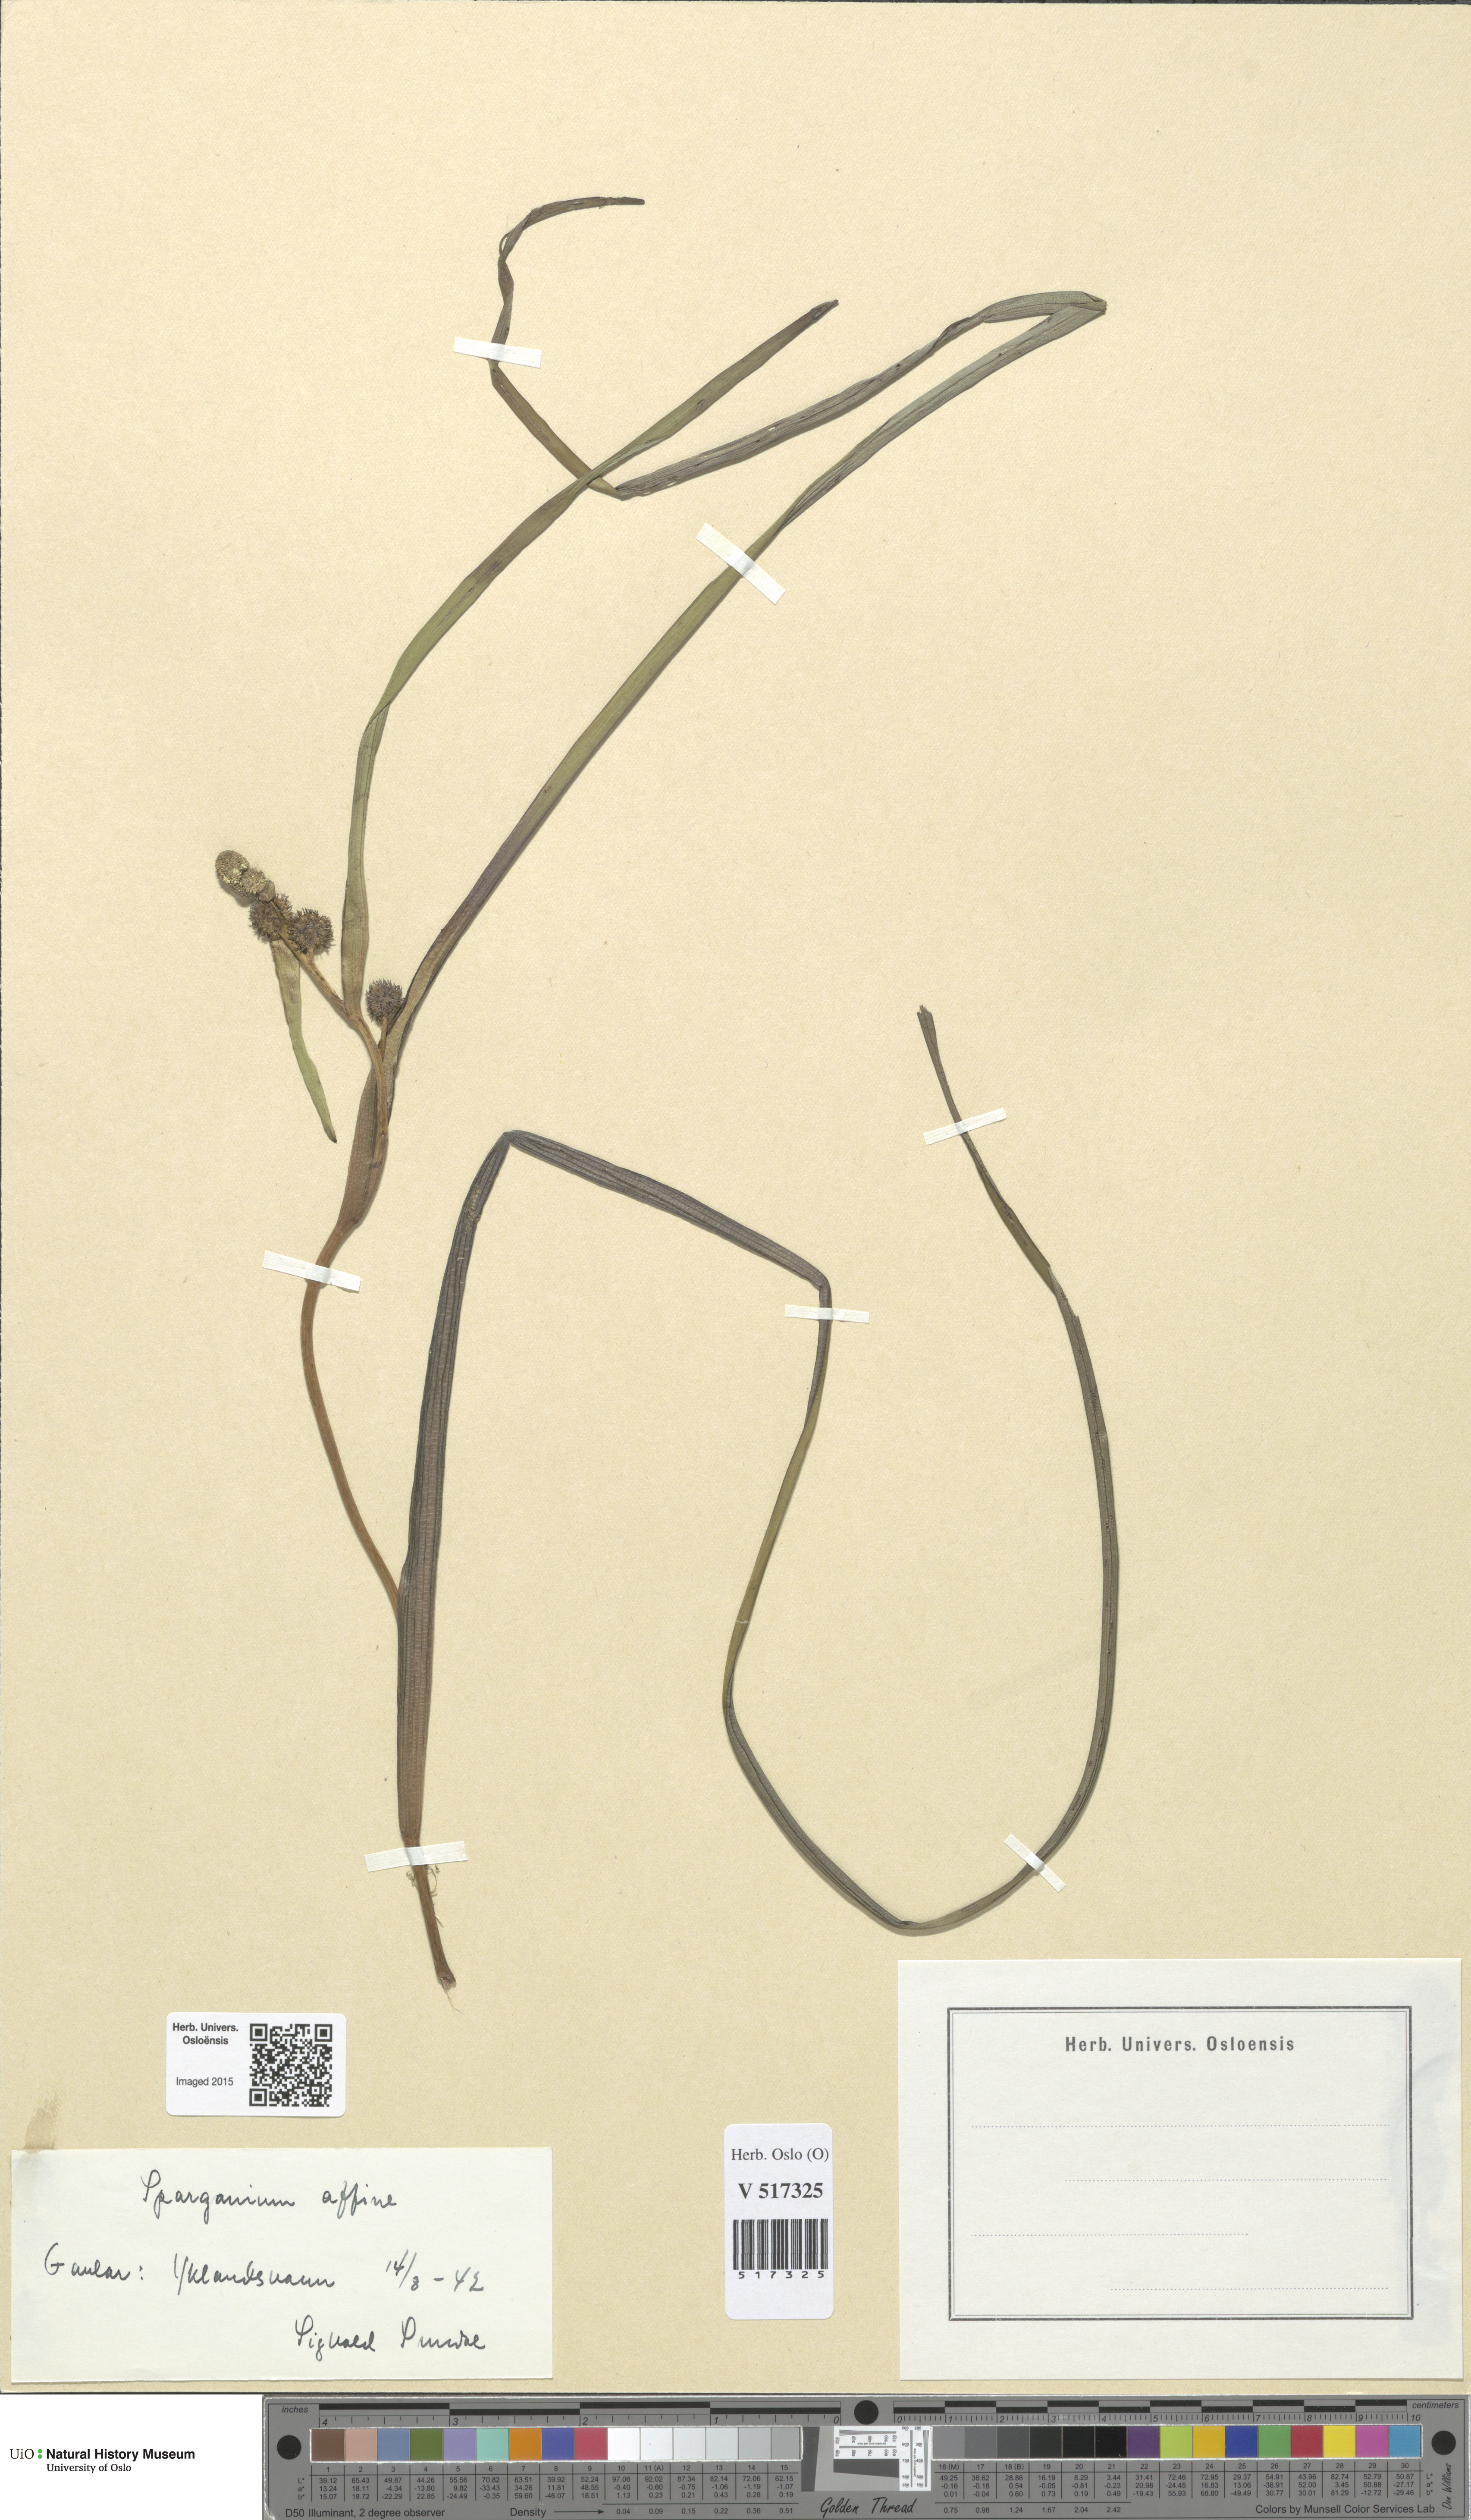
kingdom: Plantae
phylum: Tracheophyta
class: Liliopsida
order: Poales
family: Typhaceae
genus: Sparganium
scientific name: Sparganium angustifolium
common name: Floating bur-reed
